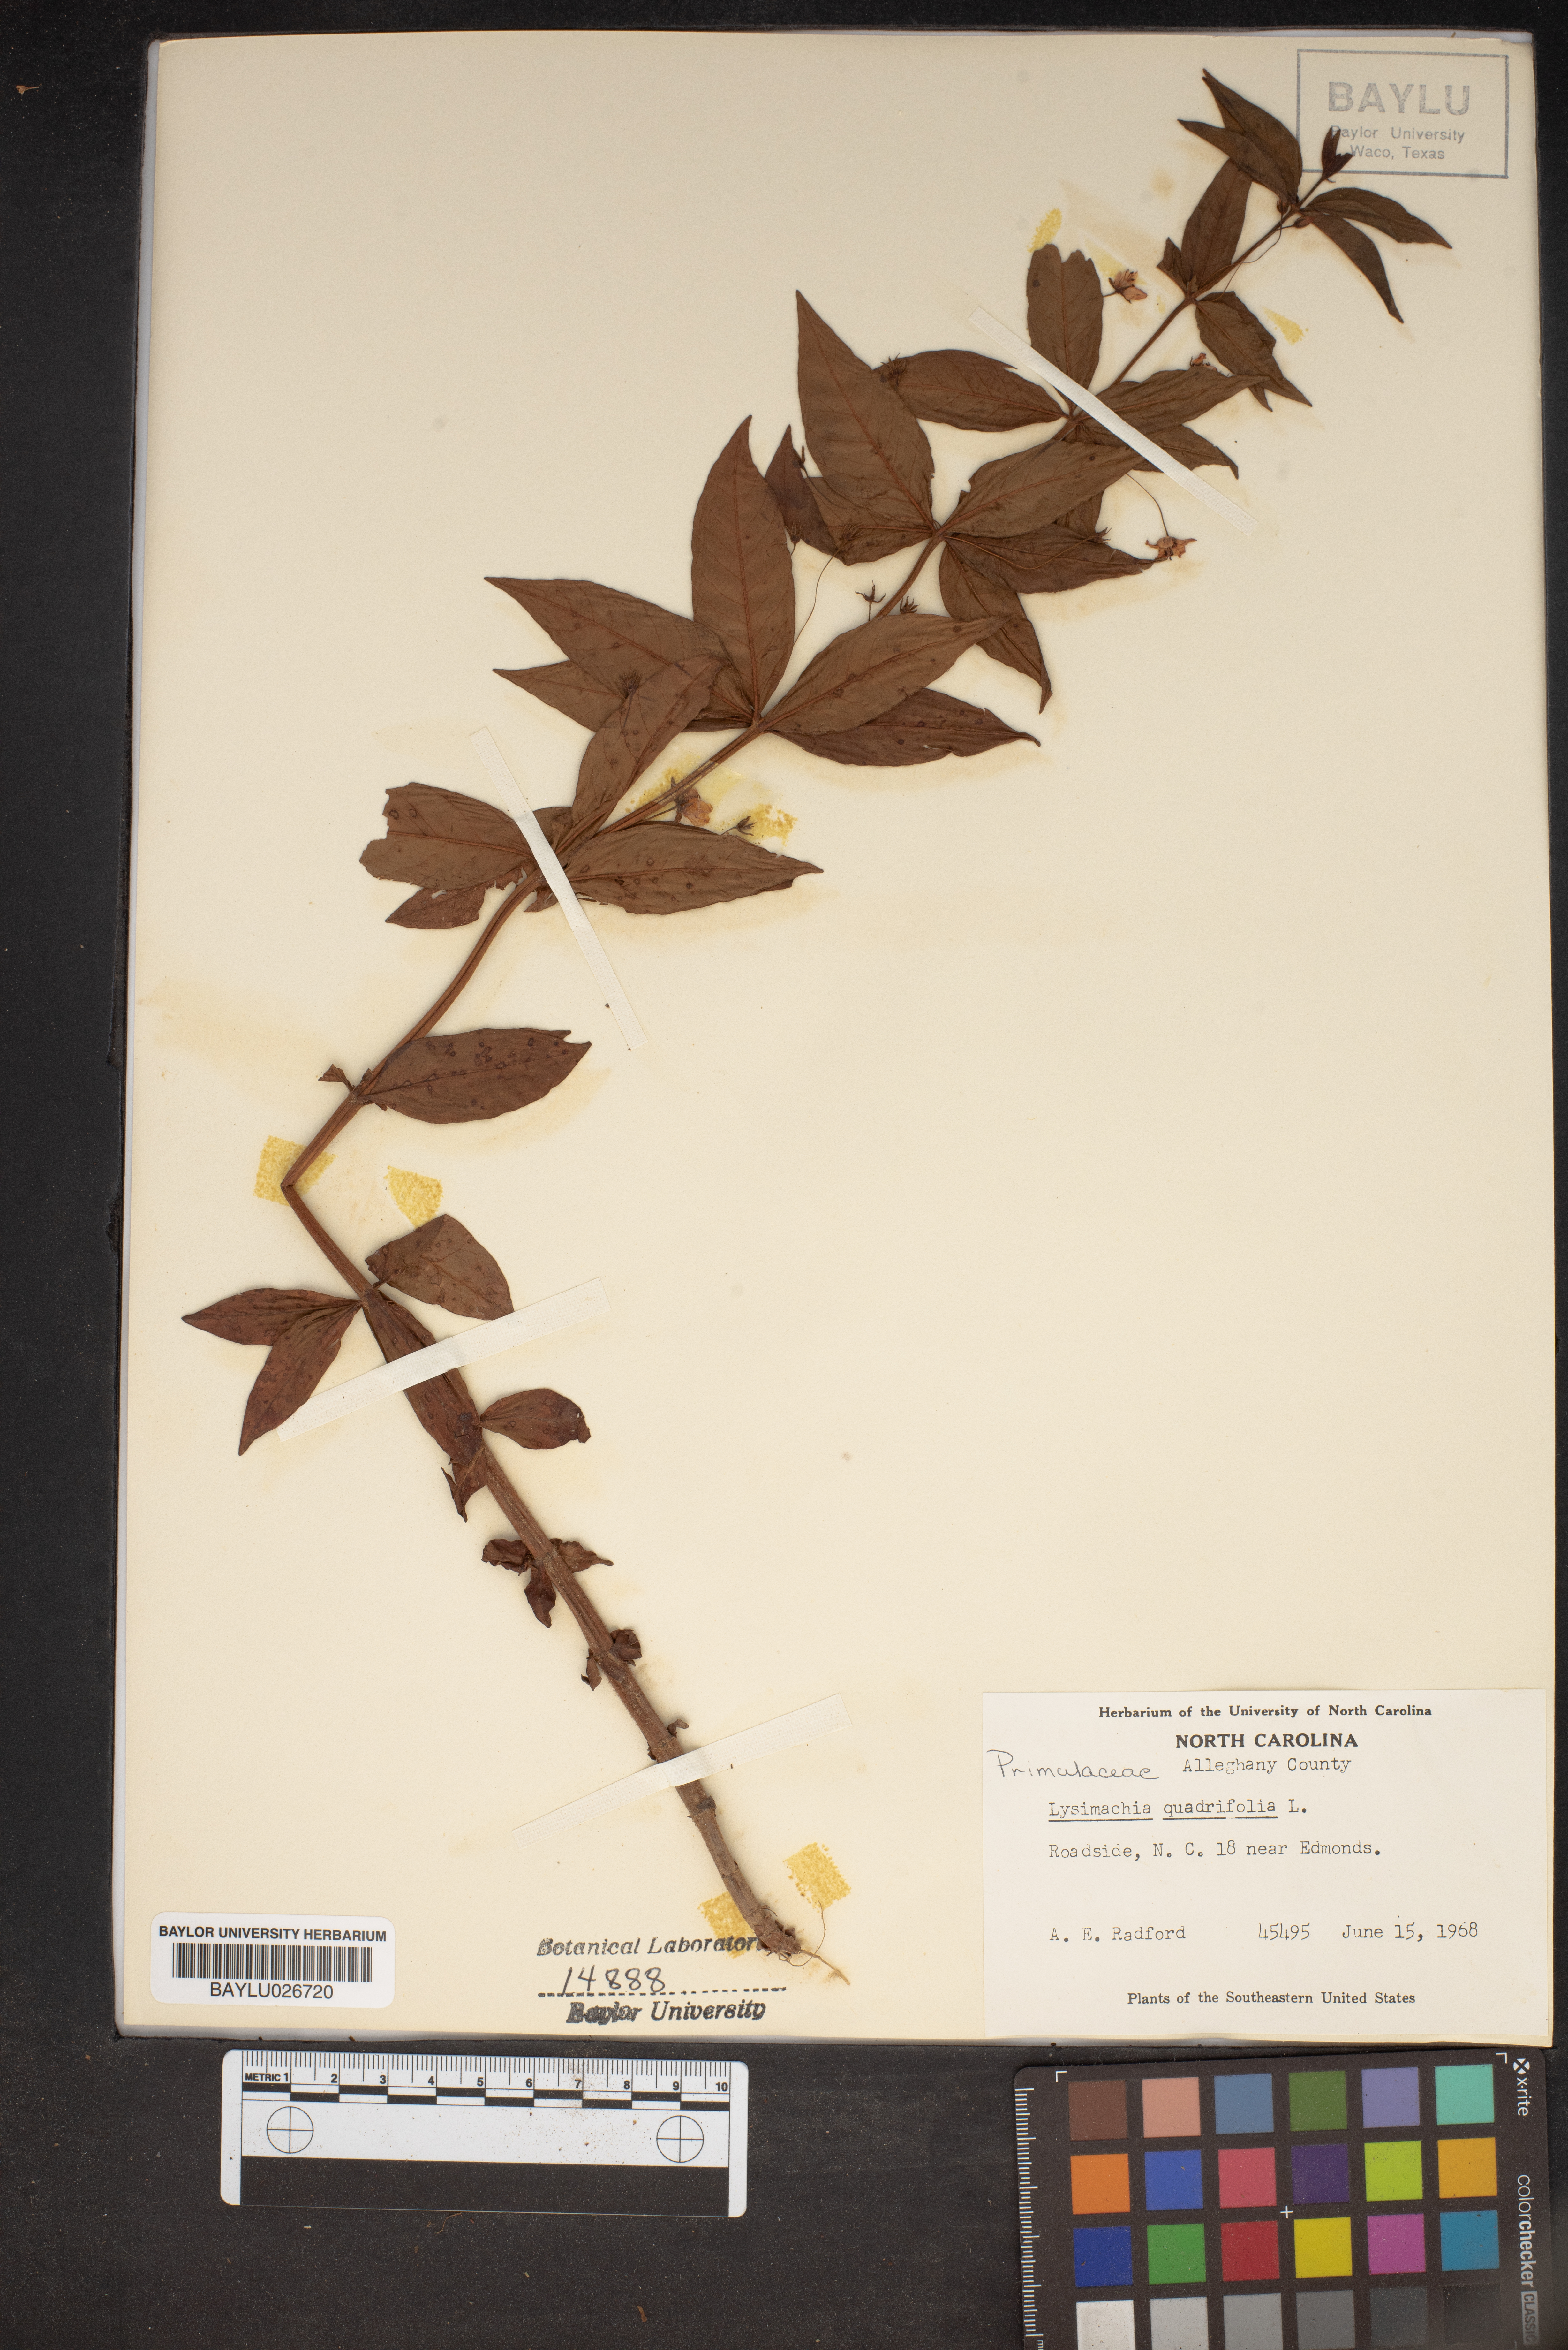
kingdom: Plantae
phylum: Tracheophyta
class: Magnoliopsida
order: Ericales
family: Primulaceae
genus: Lysimachia
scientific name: Lysimachia quadrifolia
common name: Whorled loosestrife
